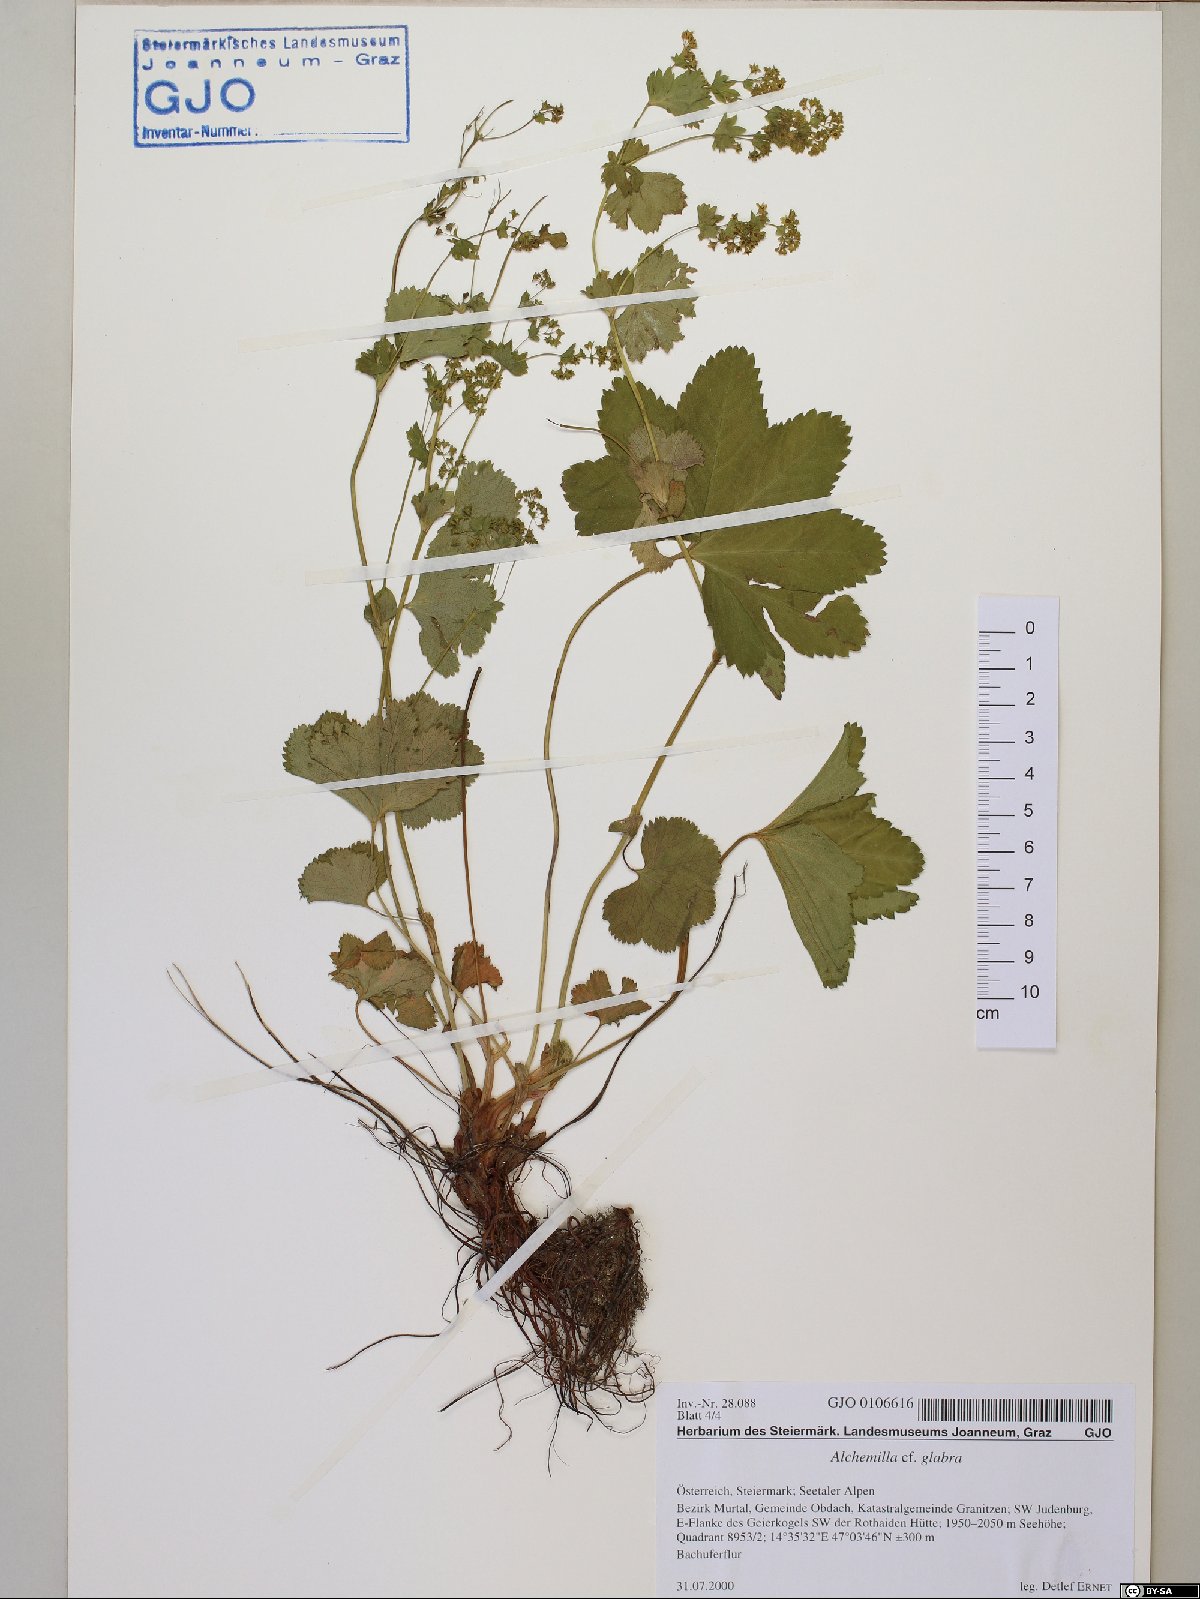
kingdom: Plantae
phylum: Tracheophyta
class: Magnoliopsida
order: Rosales
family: Rosaceae
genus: Alchemilla
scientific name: Alchemilla glabra
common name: Smooth lady's-mantle
